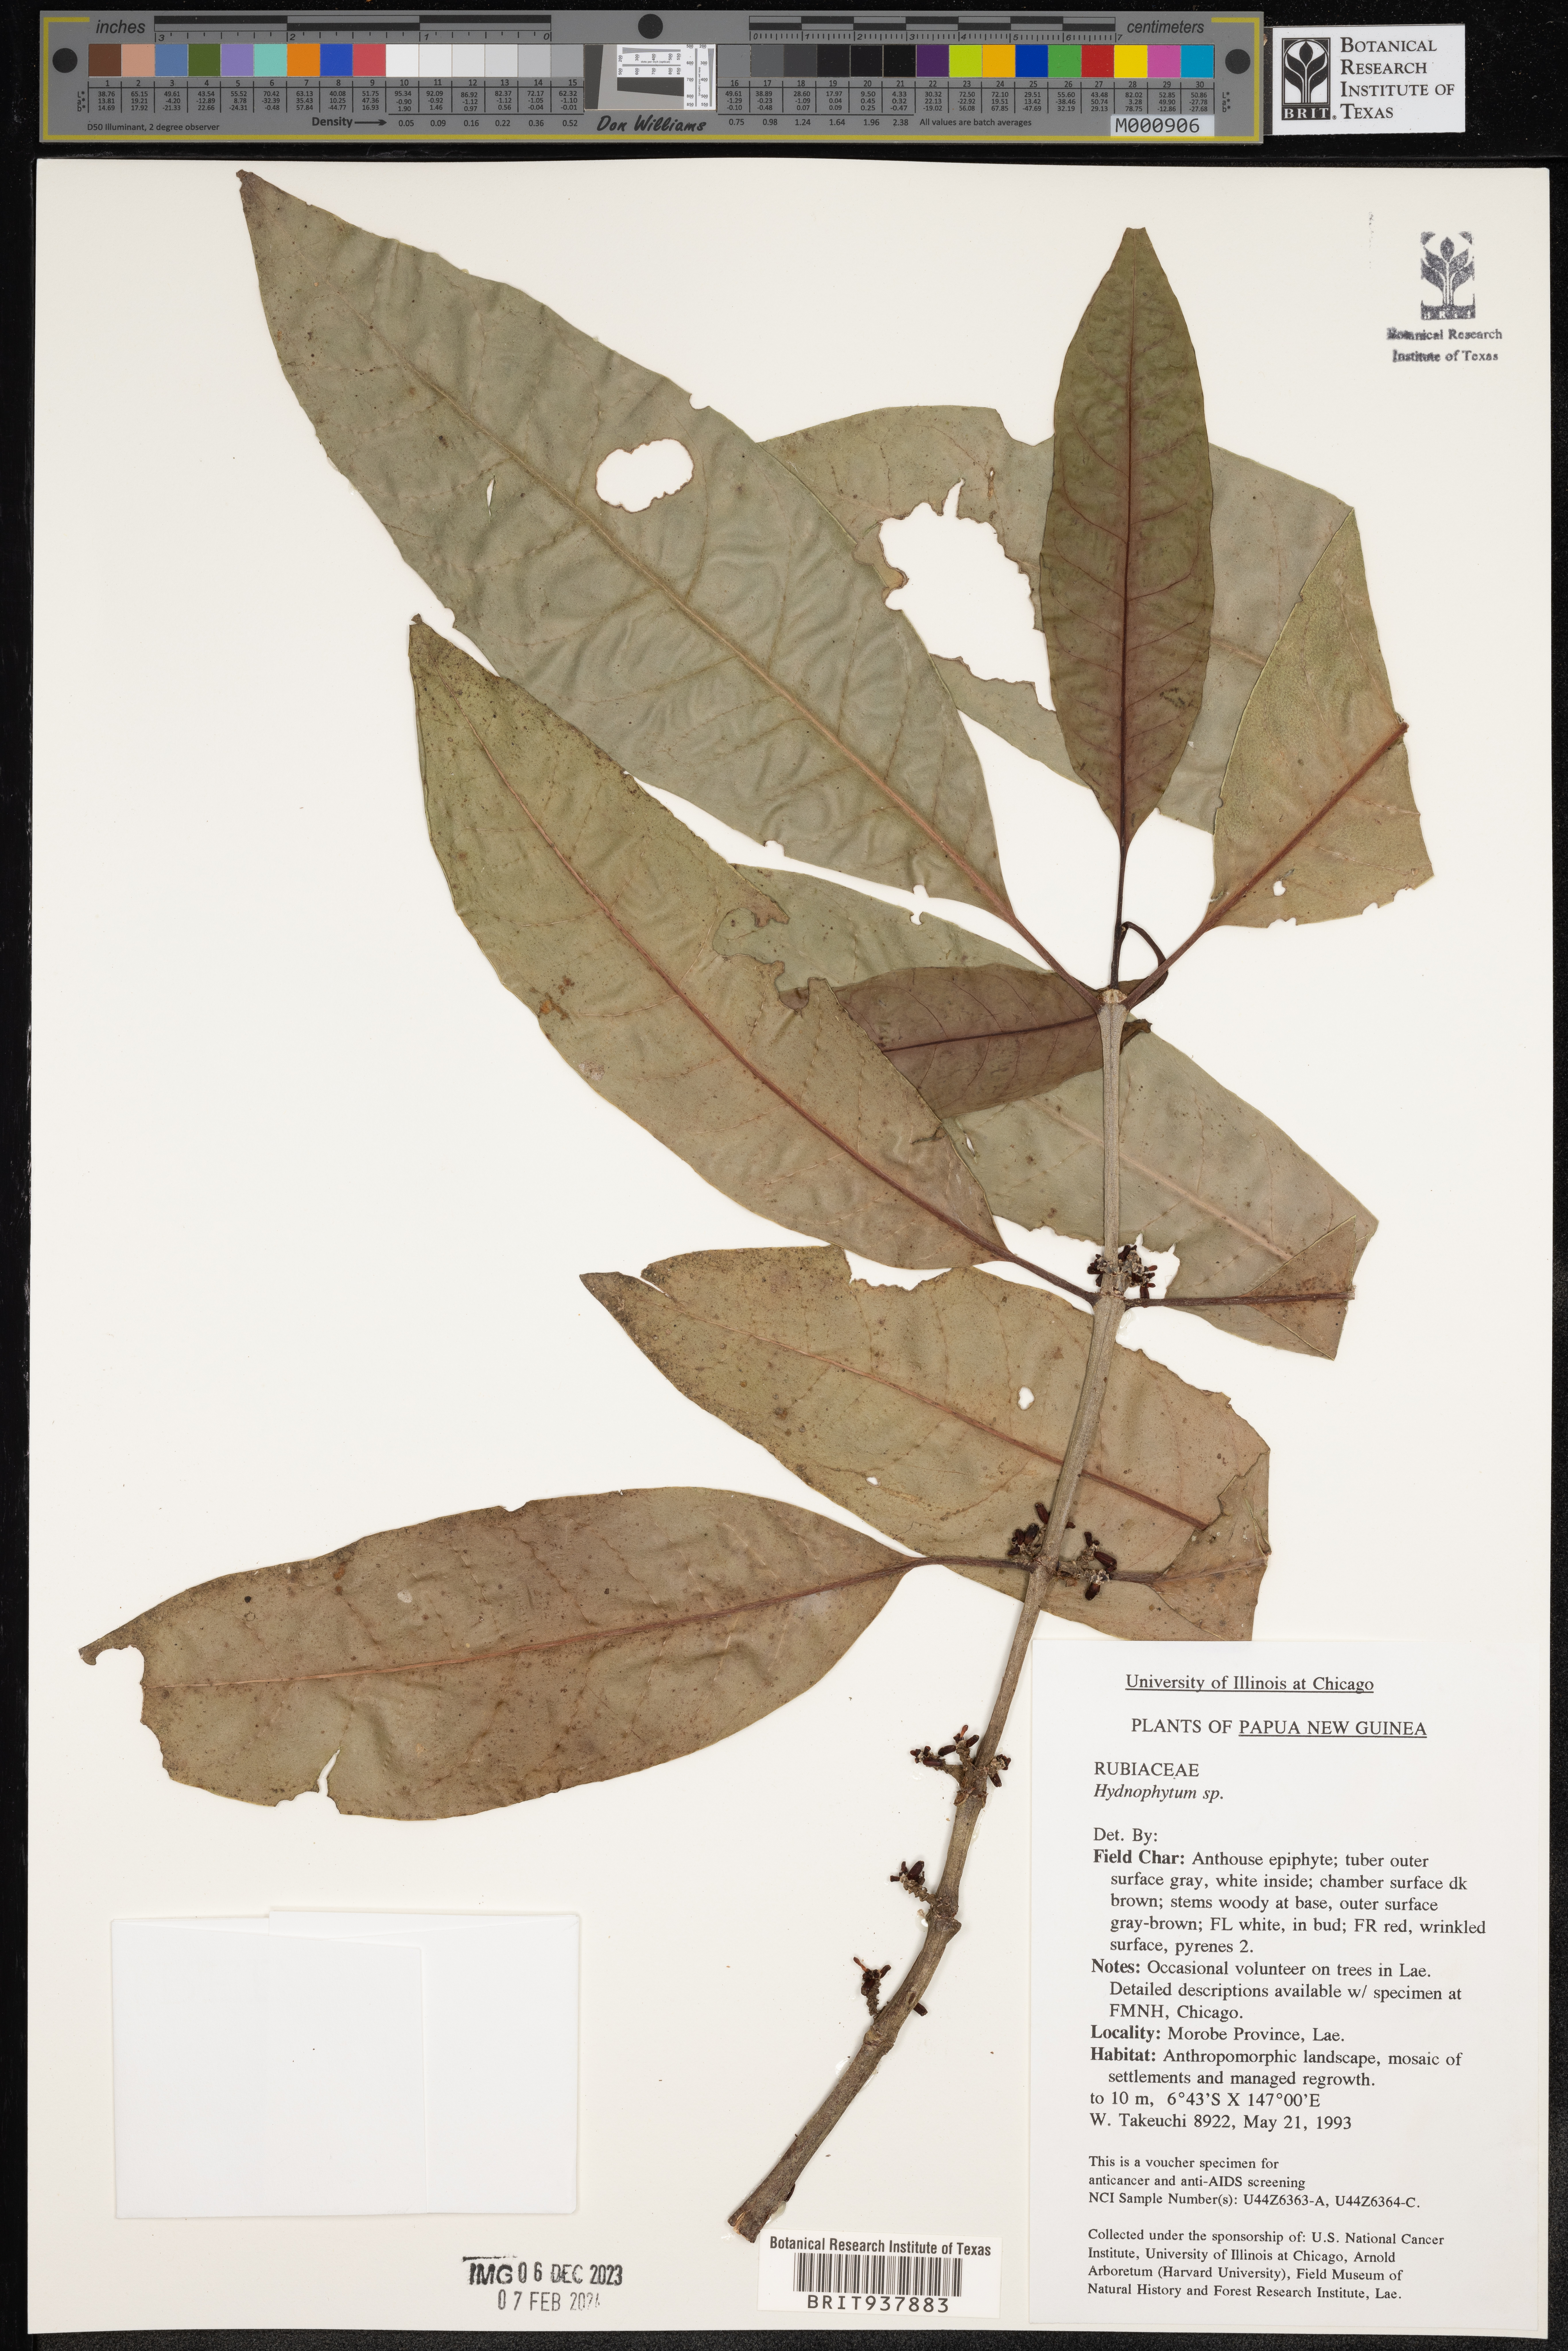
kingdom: Plantae
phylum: Tracheophyta
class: Magnoliopsida
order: Gentianales
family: Rubiaceae
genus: Hydnophytum
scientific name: Hydnophytum
